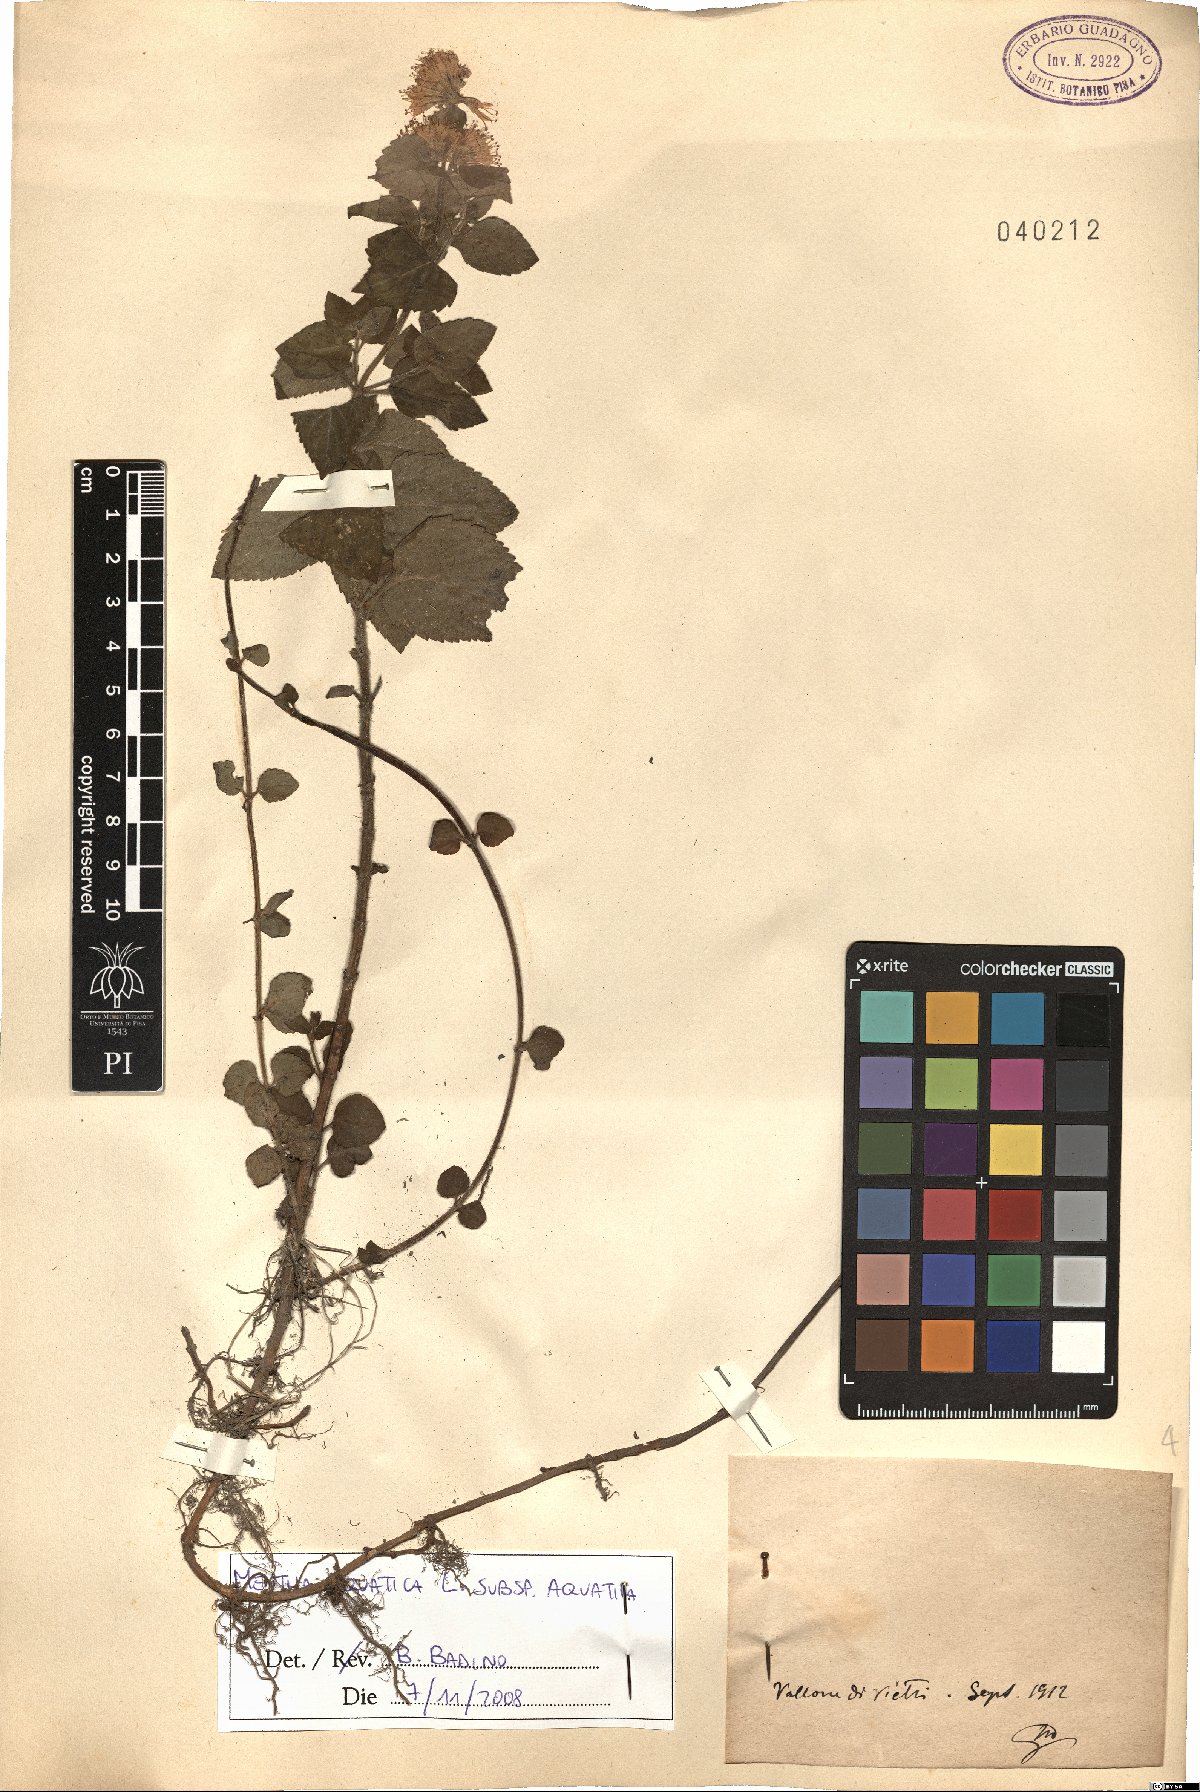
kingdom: Plantae
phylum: Tracheophyta
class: Magnoliopsida
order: Lamiales
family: Lamiaceae
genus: Mentha
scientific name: Mentha aquatica
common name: Water mint
